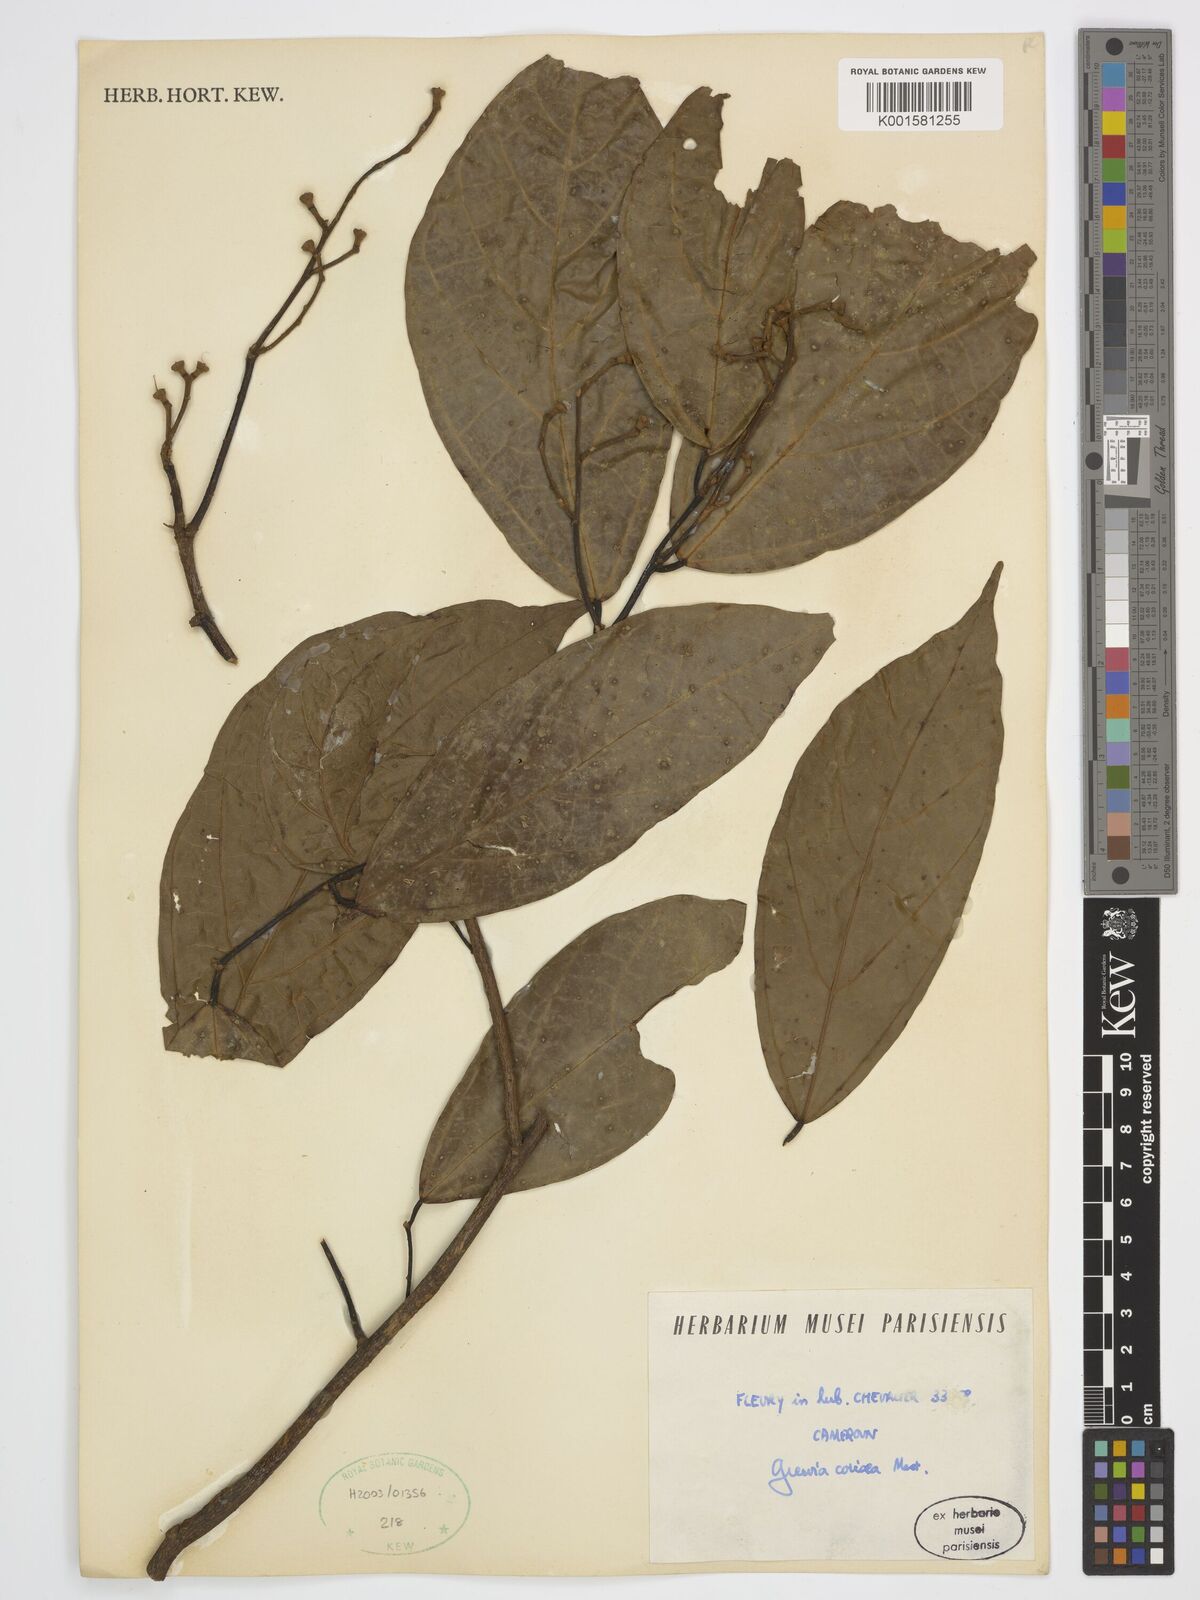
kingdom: Plantae
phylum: Tracheophyta
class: Magnoliopsida
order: Malvales
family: Malvaceae
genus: Microcos
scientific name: Microcos coriacea
